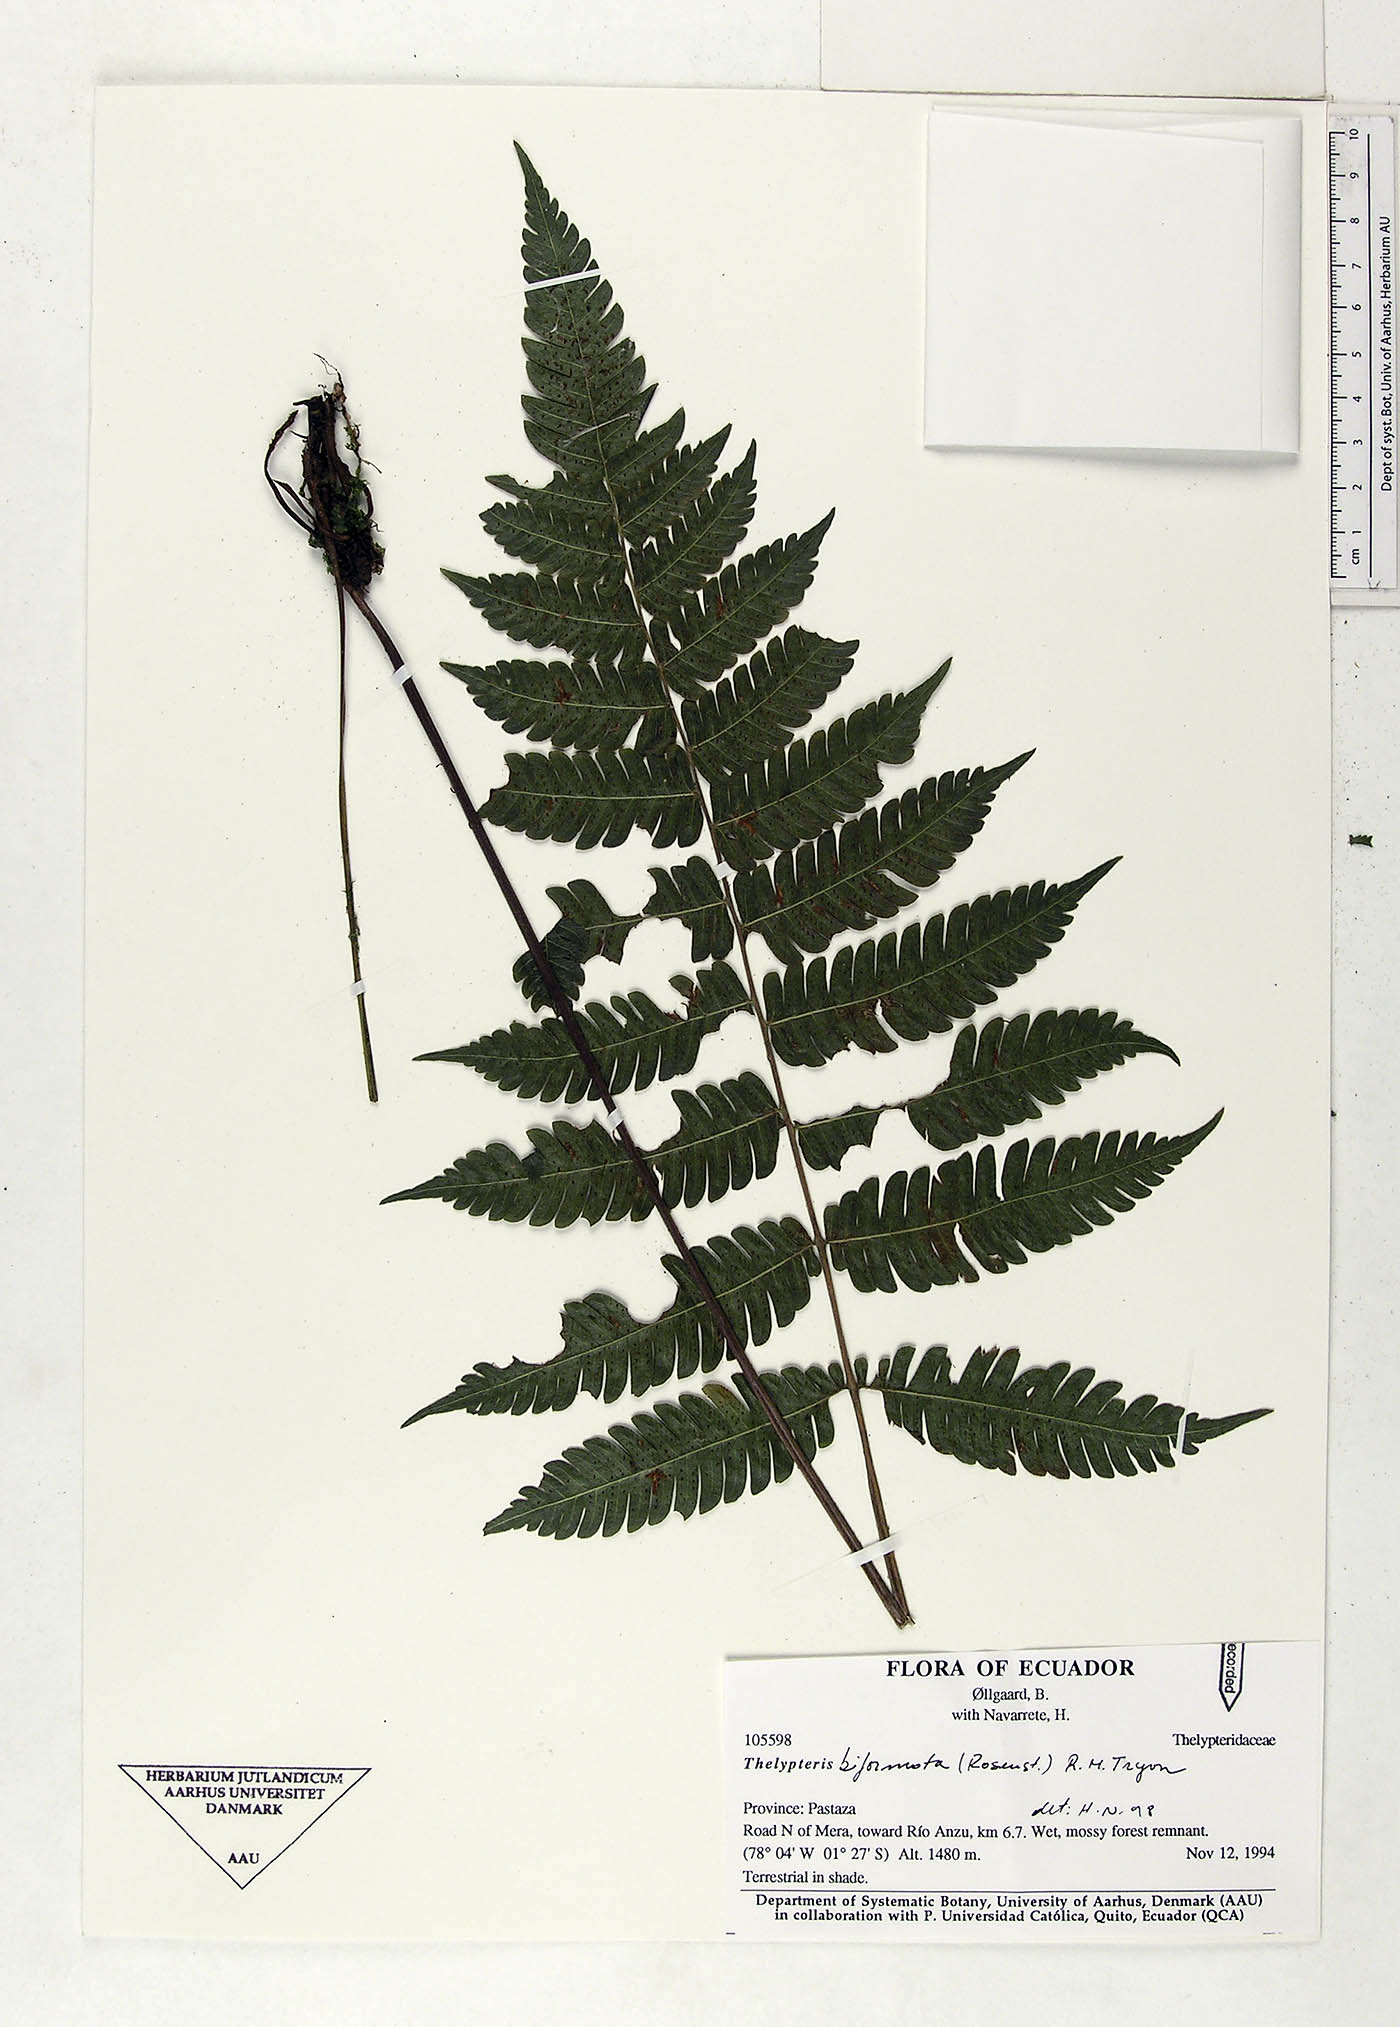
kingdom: Plantae
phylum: Tracheophyta
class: Polypodiopsida
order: Polypodiales
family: Thelypteridaceae
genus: Goniopteris
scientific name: Goniopteris biformata
